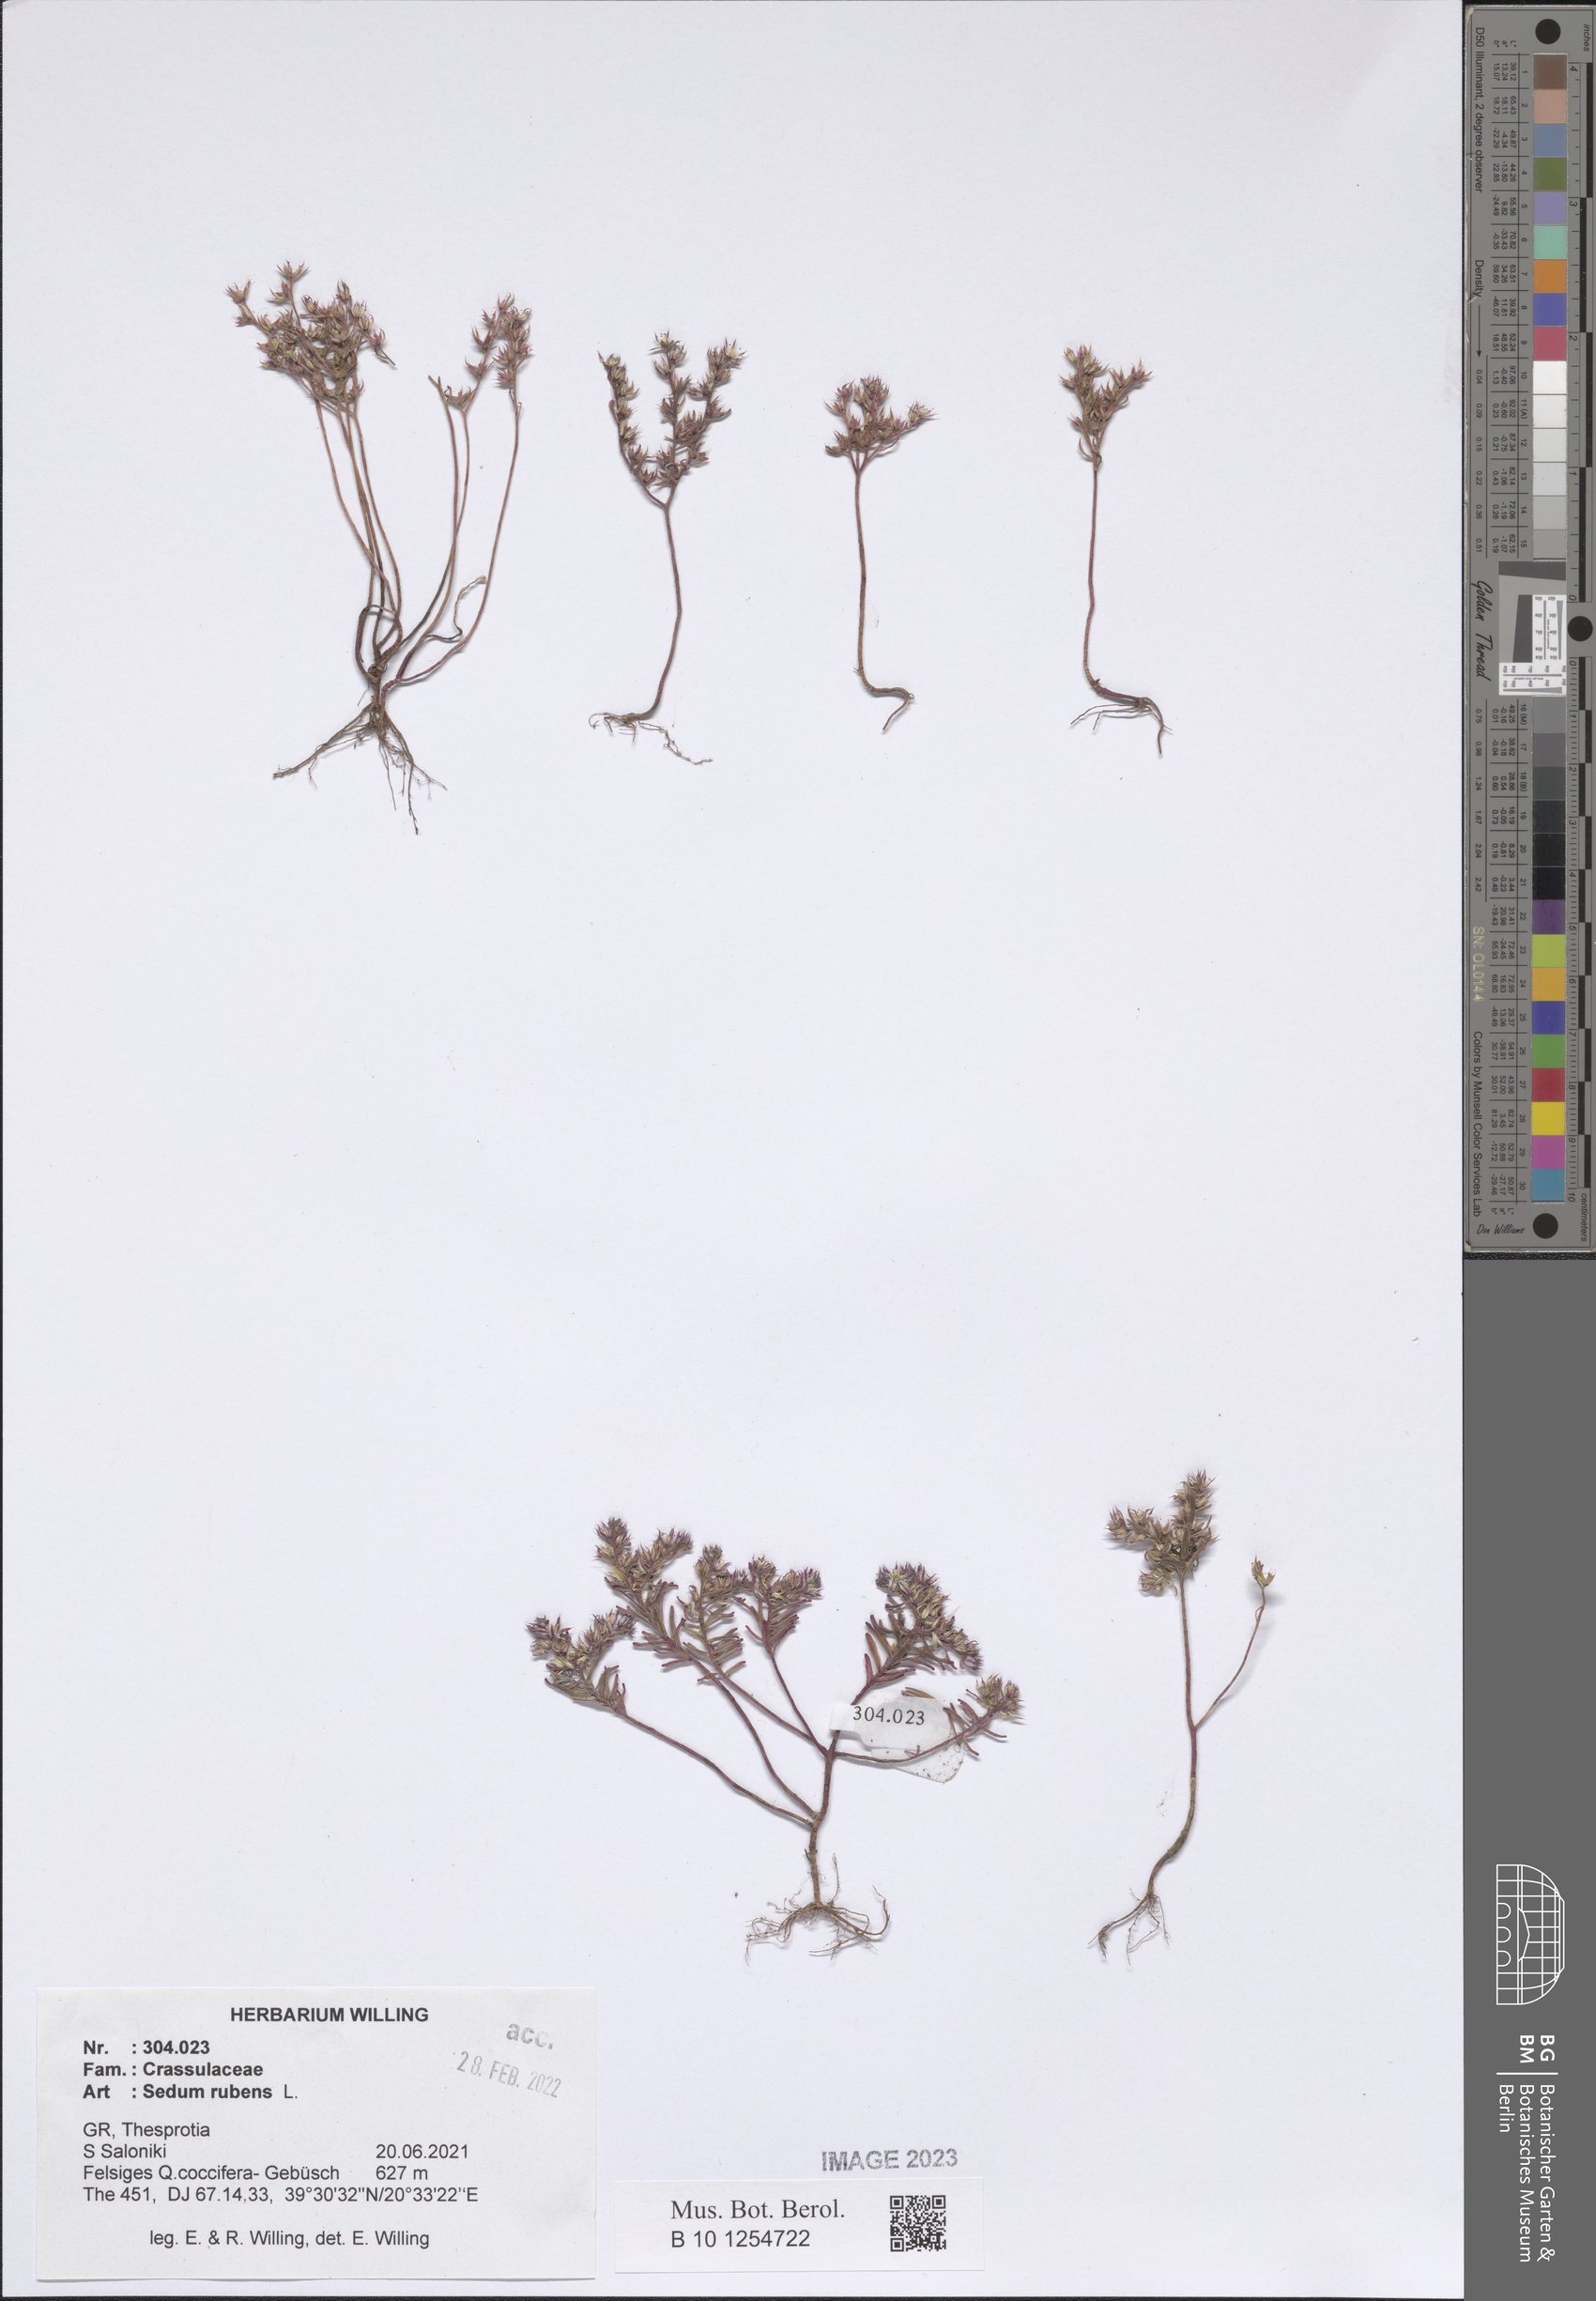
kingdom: Plantae
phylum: Tracheophyta
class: Magnoliopsida
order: Saxifragales
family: Crassulaceae
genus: Sedum
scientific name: Sedum rubens
